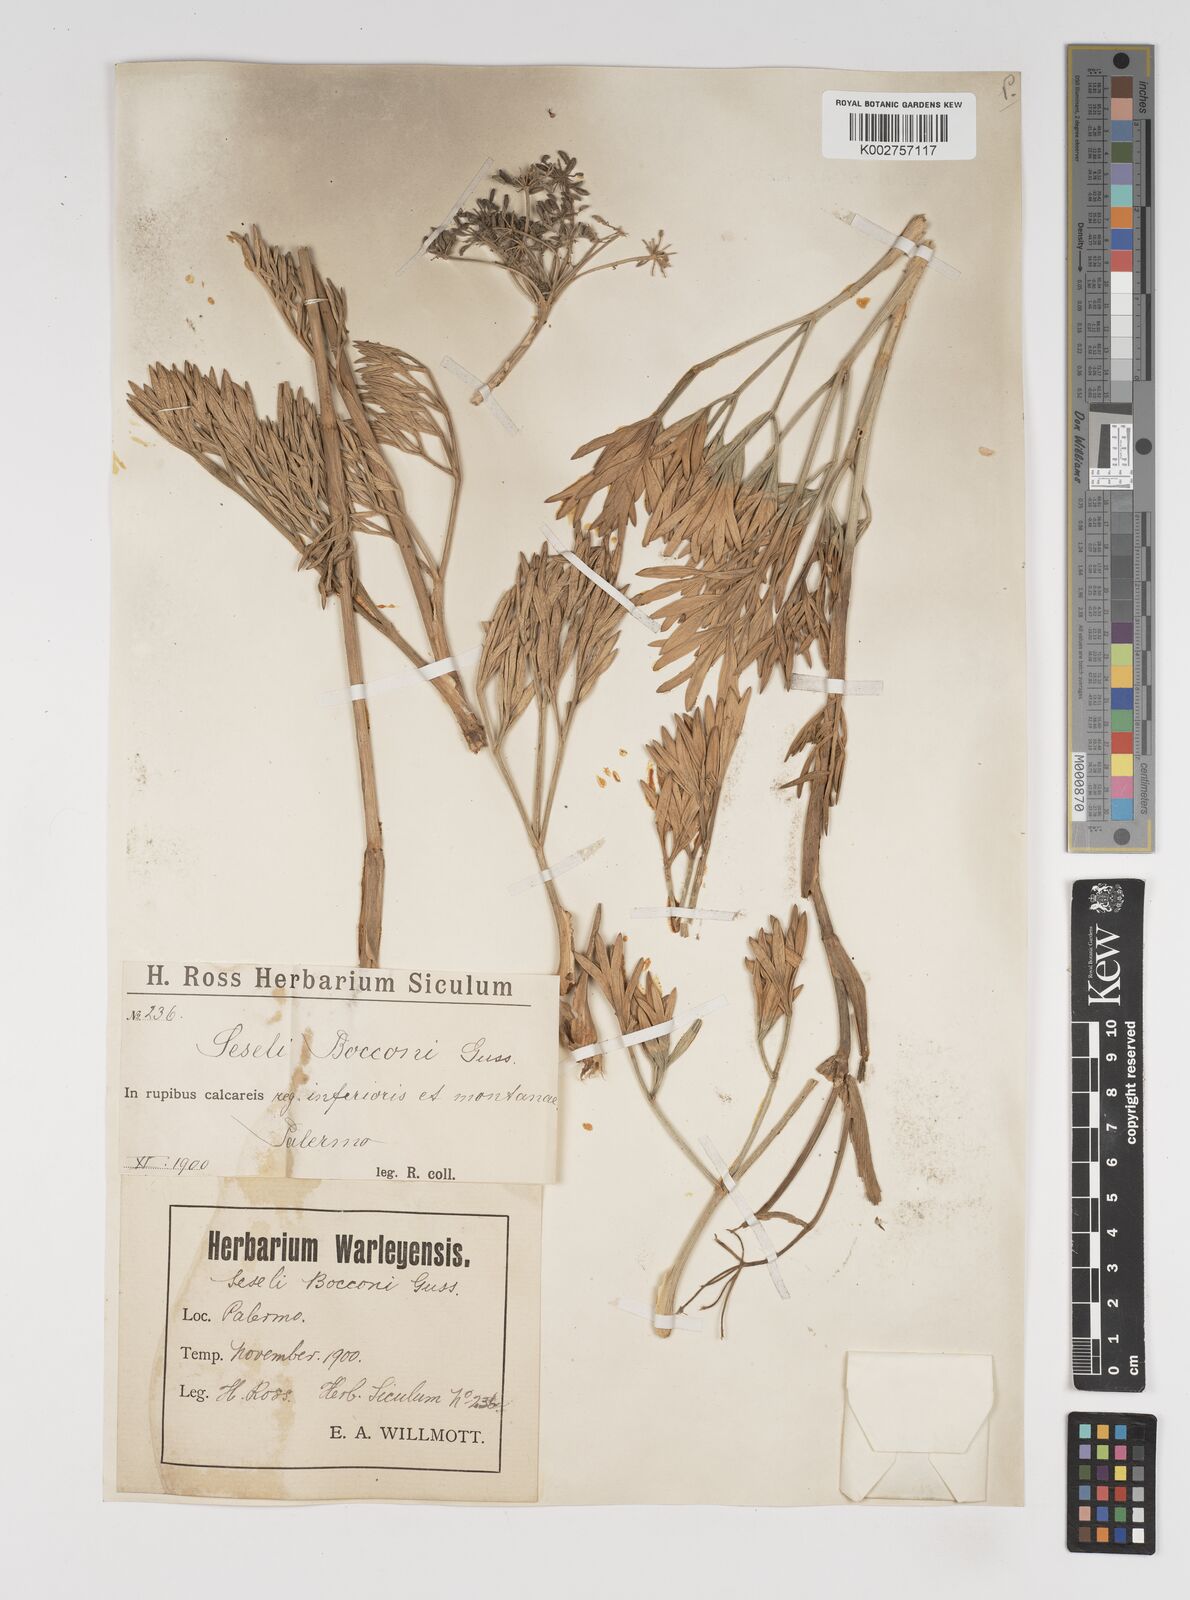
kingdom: Plantae
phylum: Tracheophyta
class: Magnoliopsida
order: Apiales
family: Apiaceae
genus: Seseli
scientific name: Seseli bocconei
